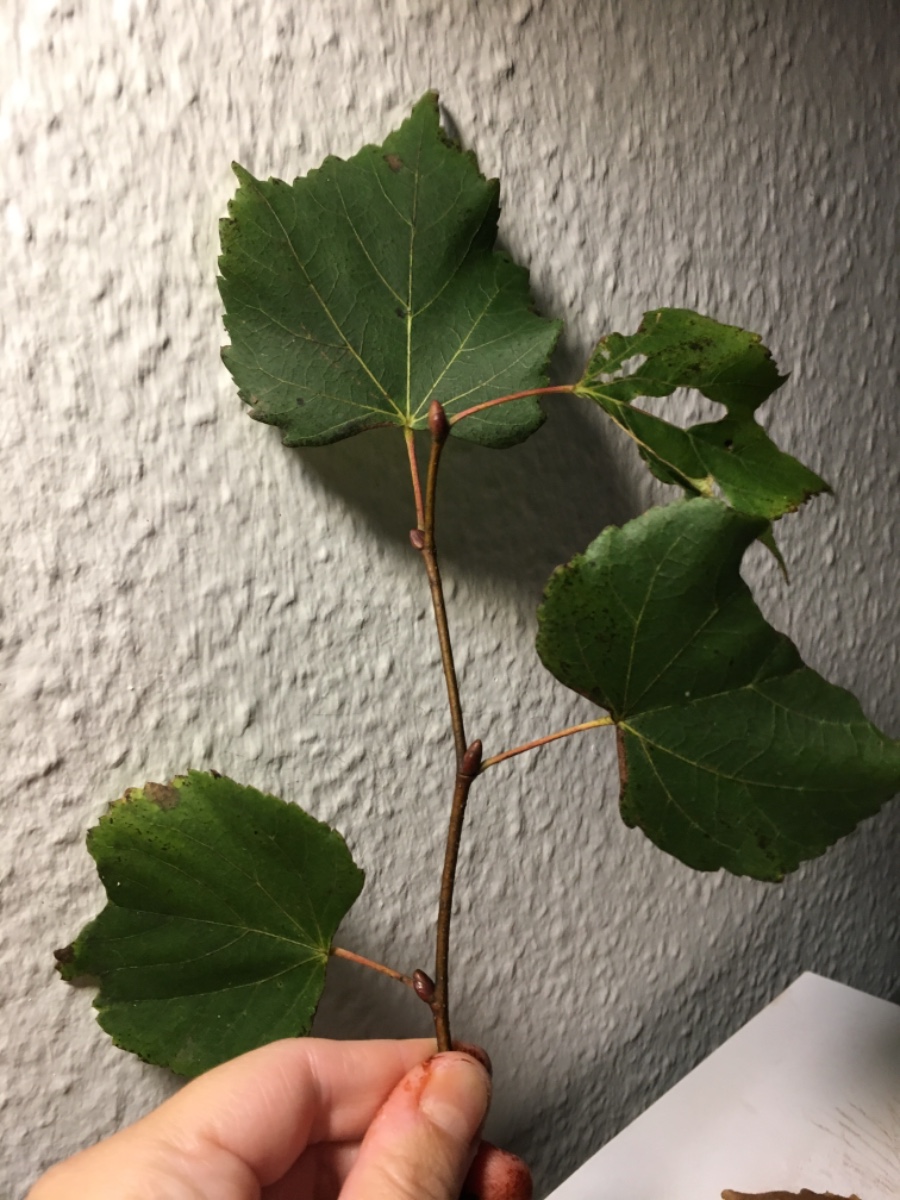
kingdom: Fungi
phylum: Basidiomycota
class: Agaricomycetes
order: Agaricales
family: Cortinariaceae
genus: Cortinarius
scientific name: Cortinarius
